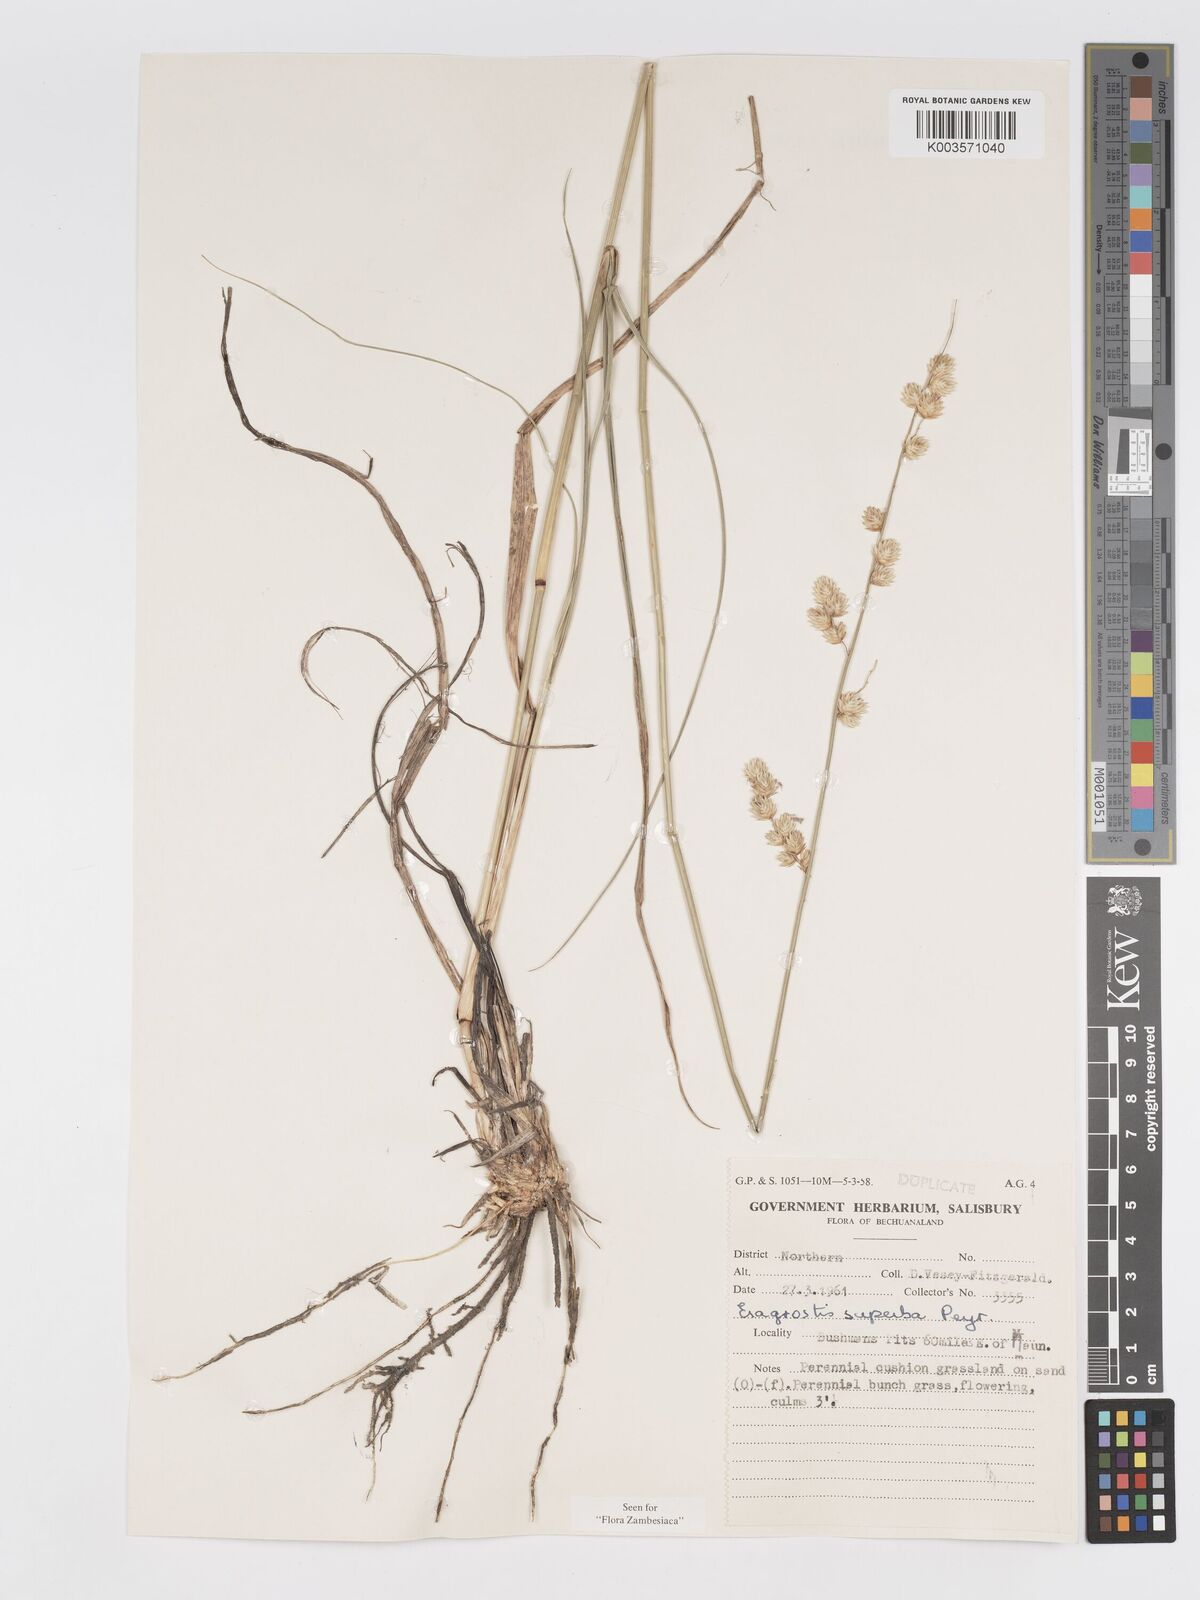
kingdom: Plantae
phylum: Tracheophyta
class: Liliopsida
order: Poales
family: Poaceae
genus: Eragrostis
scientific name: Eragrostis superba
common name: Wilman lovegrass
